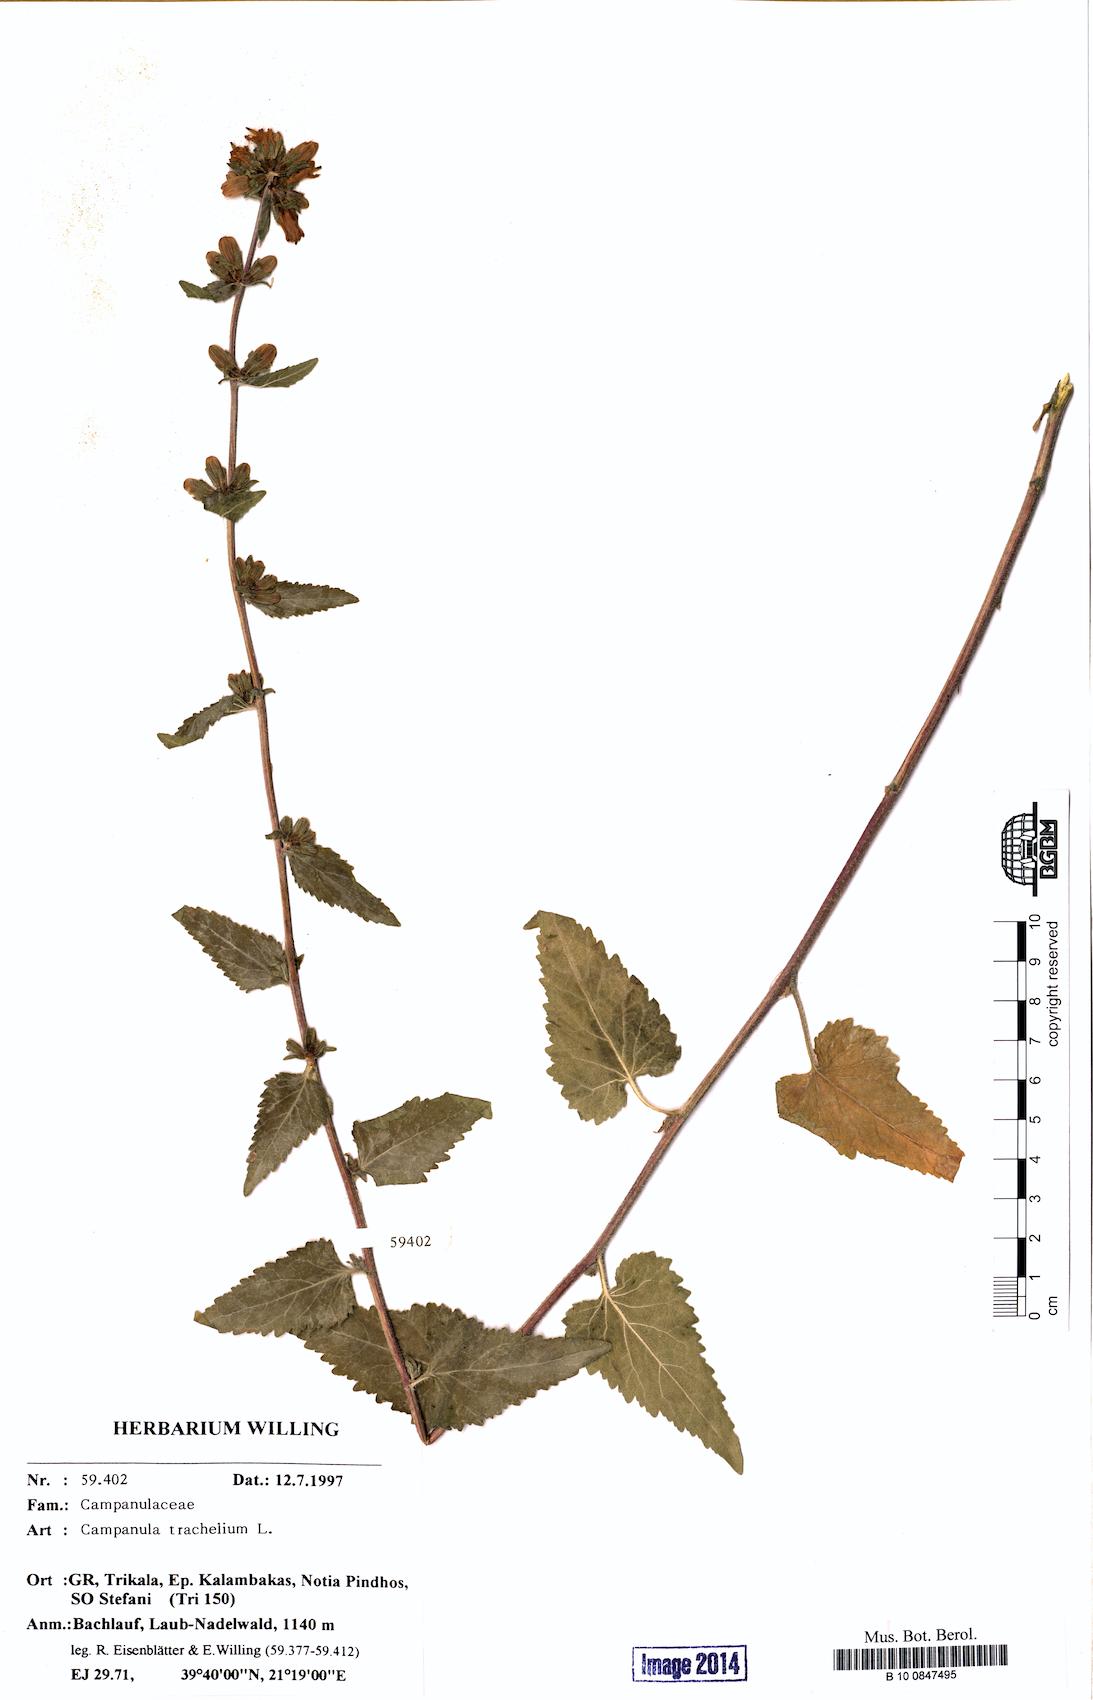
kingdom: Plantae
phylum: Tracheophyta
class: Magnoliopsida
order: Asterales
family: Campanulaceae
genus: Campanula
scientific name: Campanula trachelium
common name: Nettle-leaved bellflower
